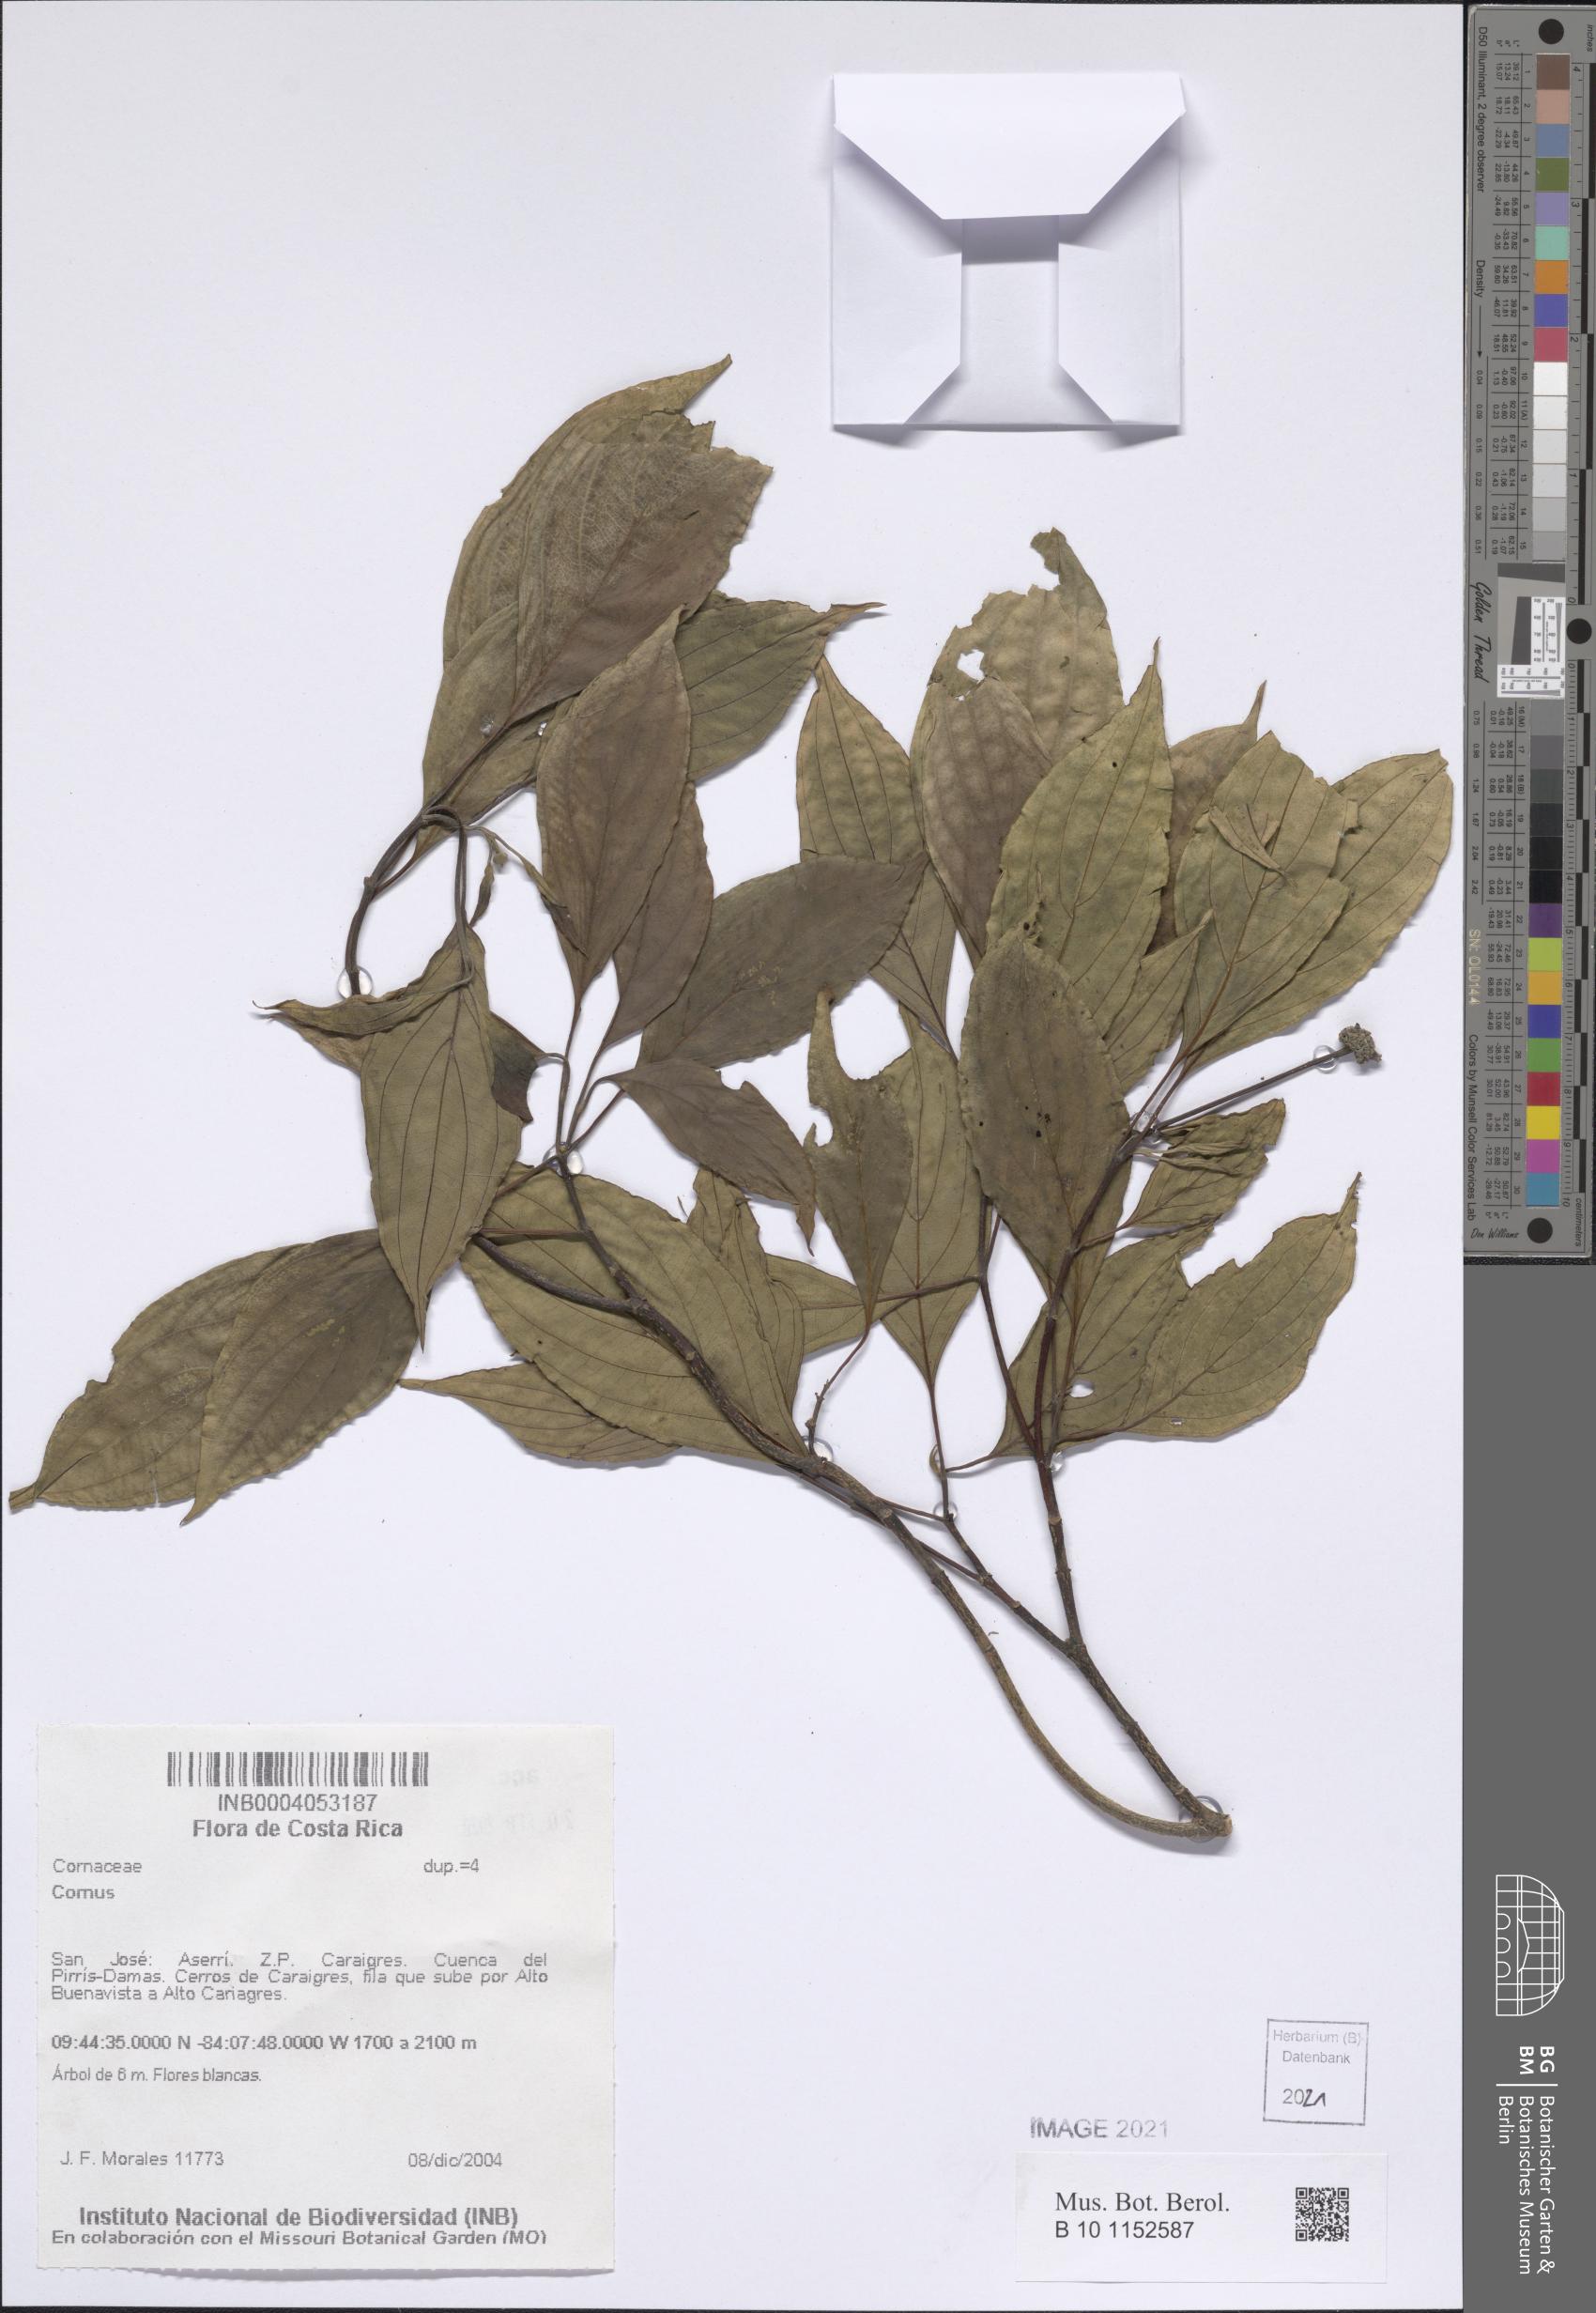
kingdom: Plantae
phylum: Tracheophyta
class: Magnoliopsida
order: Cornales
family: Cornaceae
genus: Cornus
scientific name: Cornus
